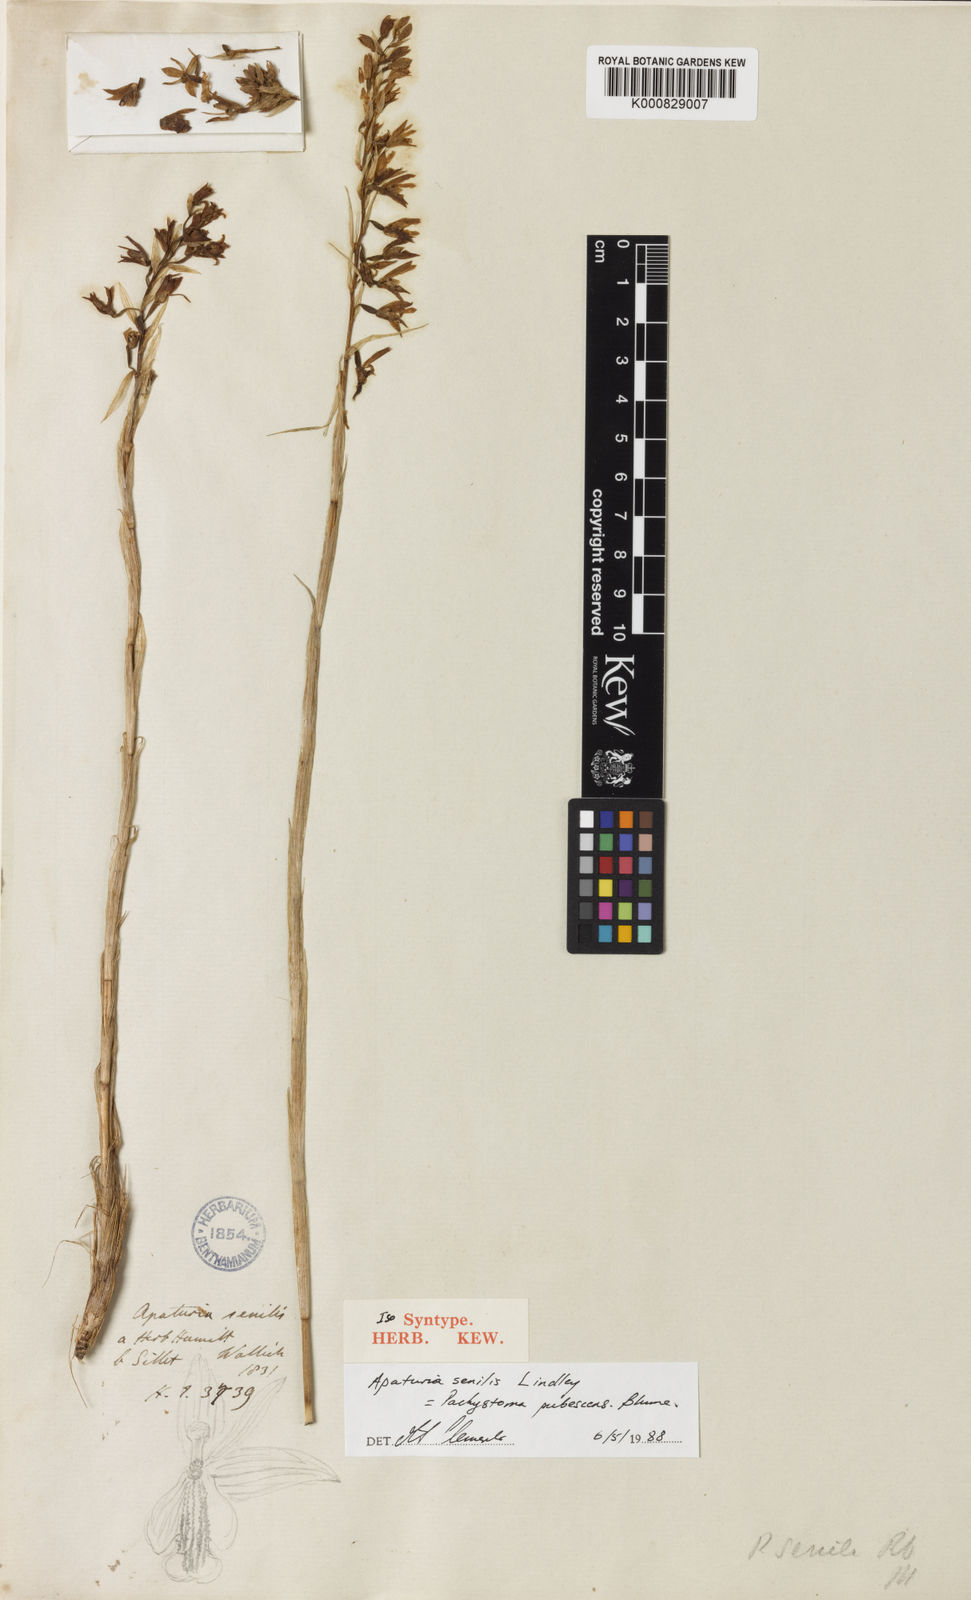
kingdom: Plantae
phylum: Tracheophyta
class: Liliopsida
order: Asparagales
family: Orchidaceae
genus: Pachystoma
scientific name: Pachystoma pubescens
